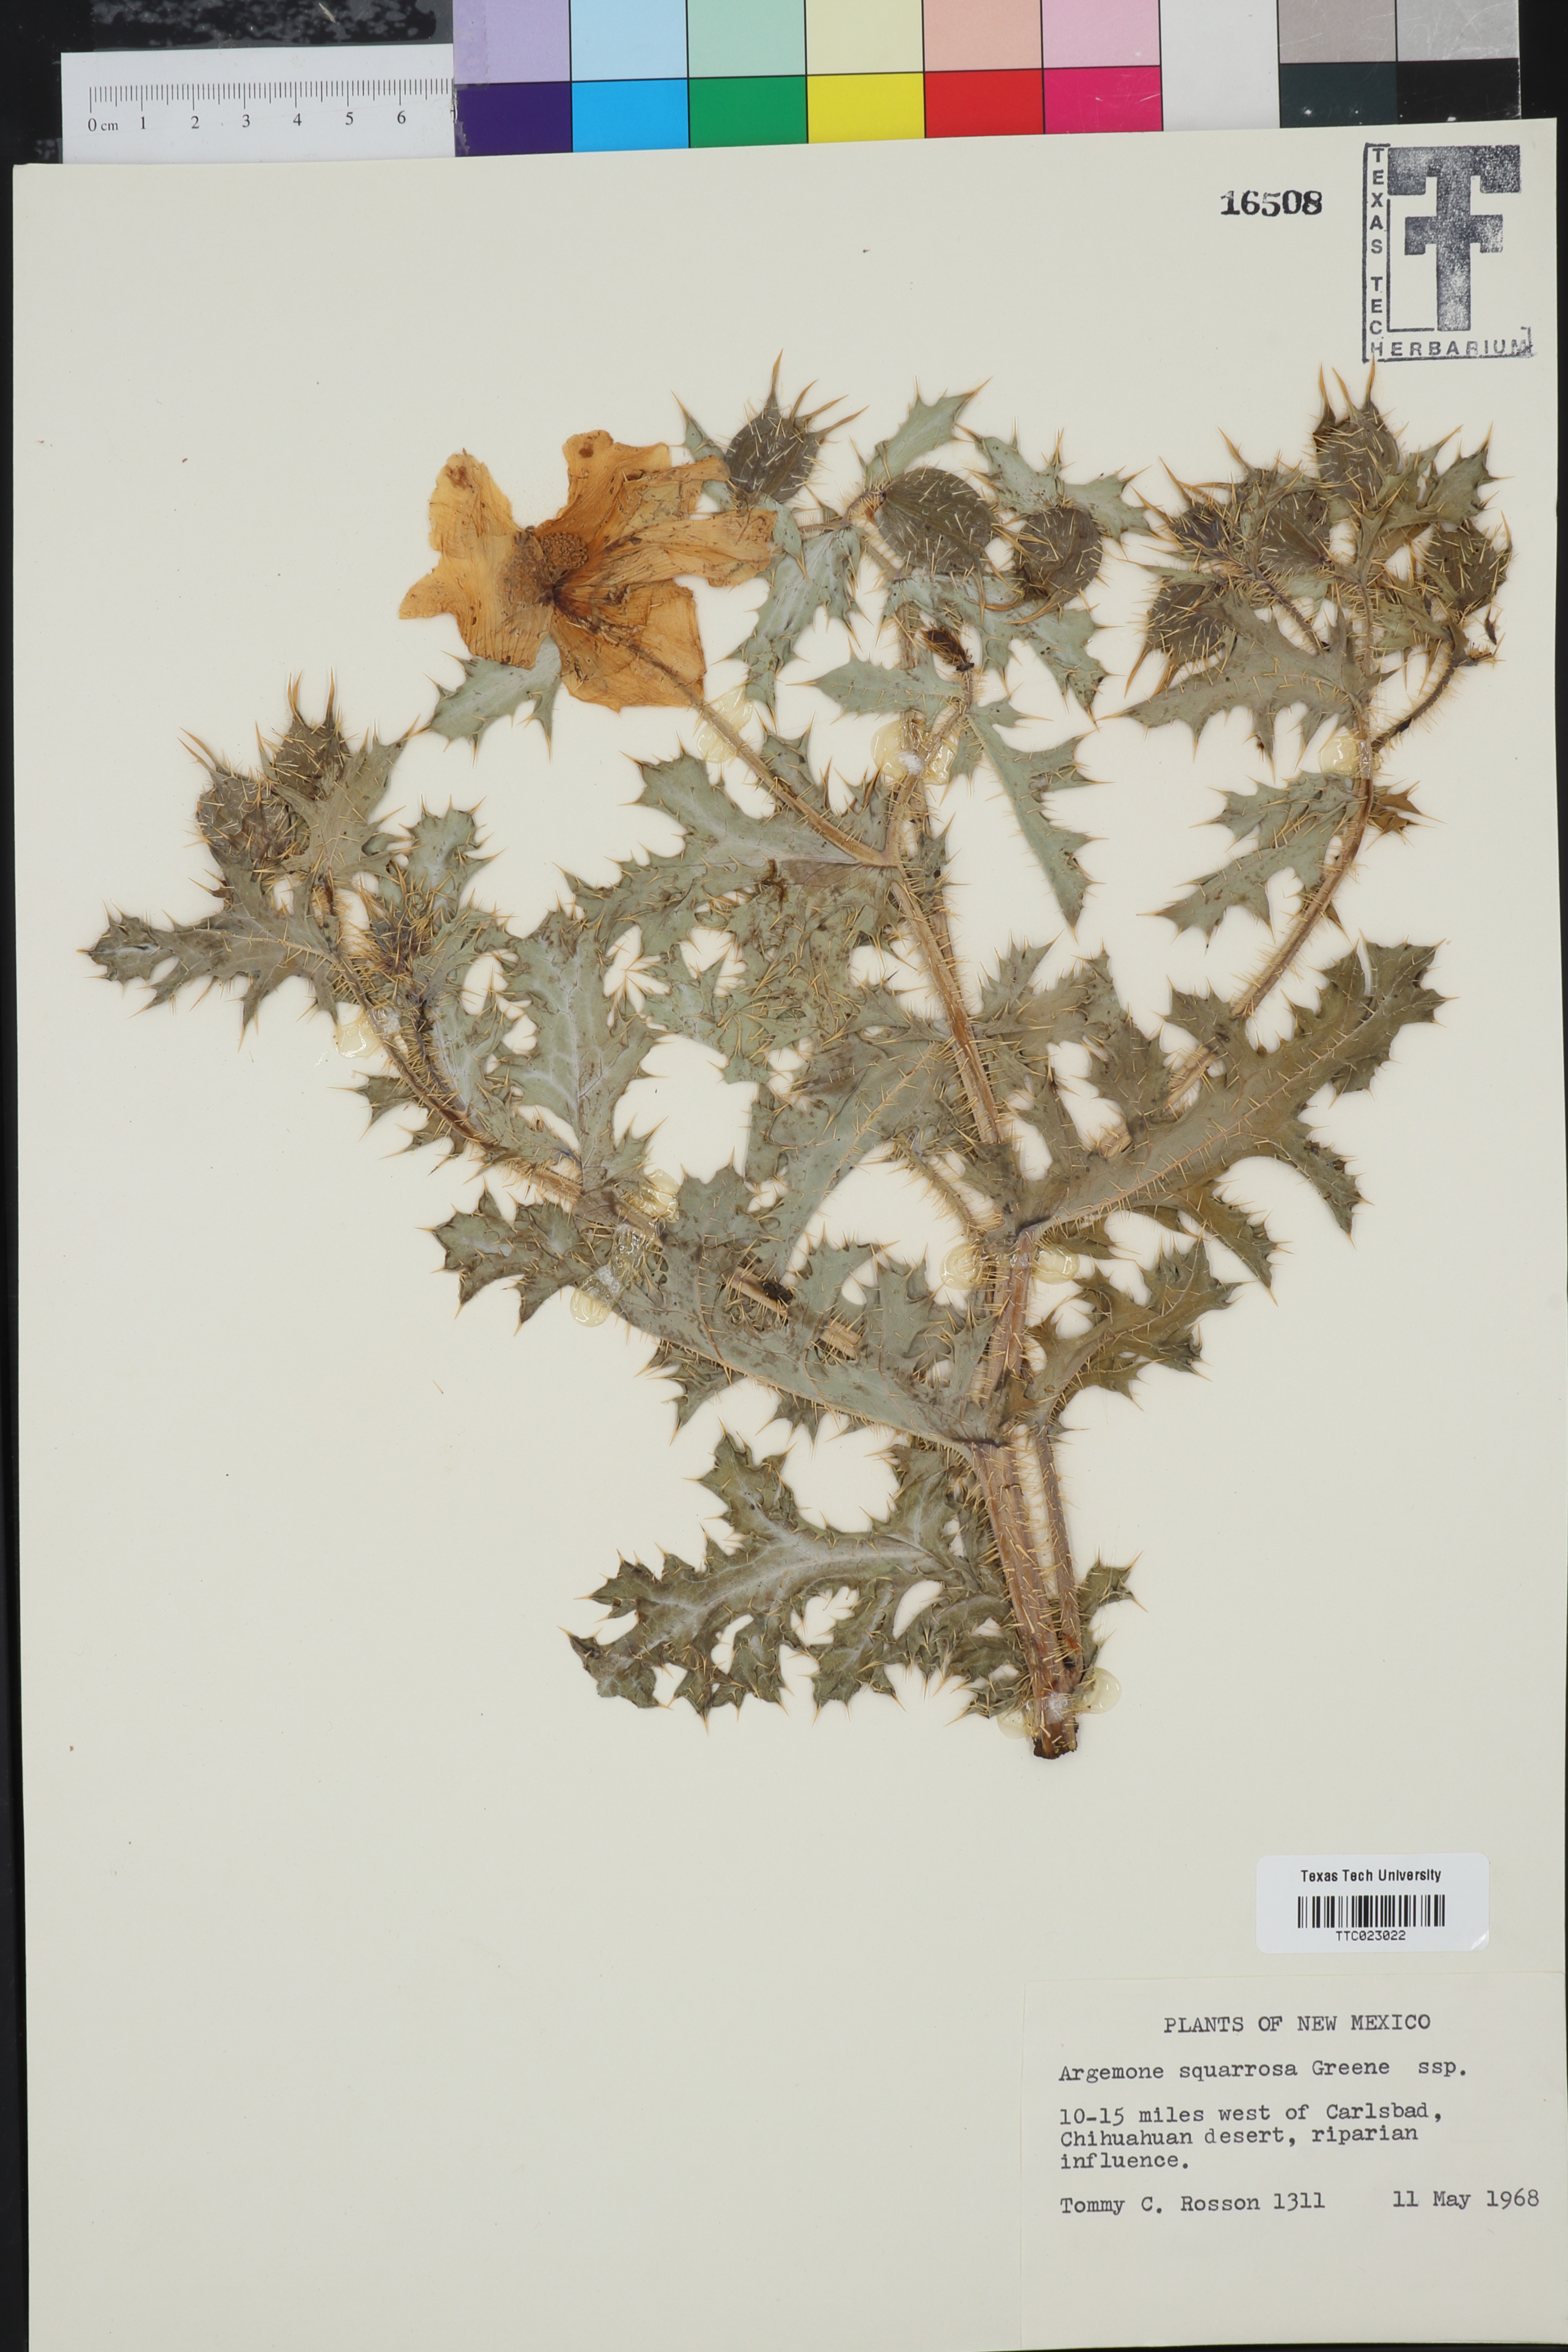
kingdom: Plantae
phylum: Tracheophyta
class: Magnoliopsida
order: Ranunculales
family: Papaveraceae
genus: Argemone
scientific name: Argemone squarrosa
